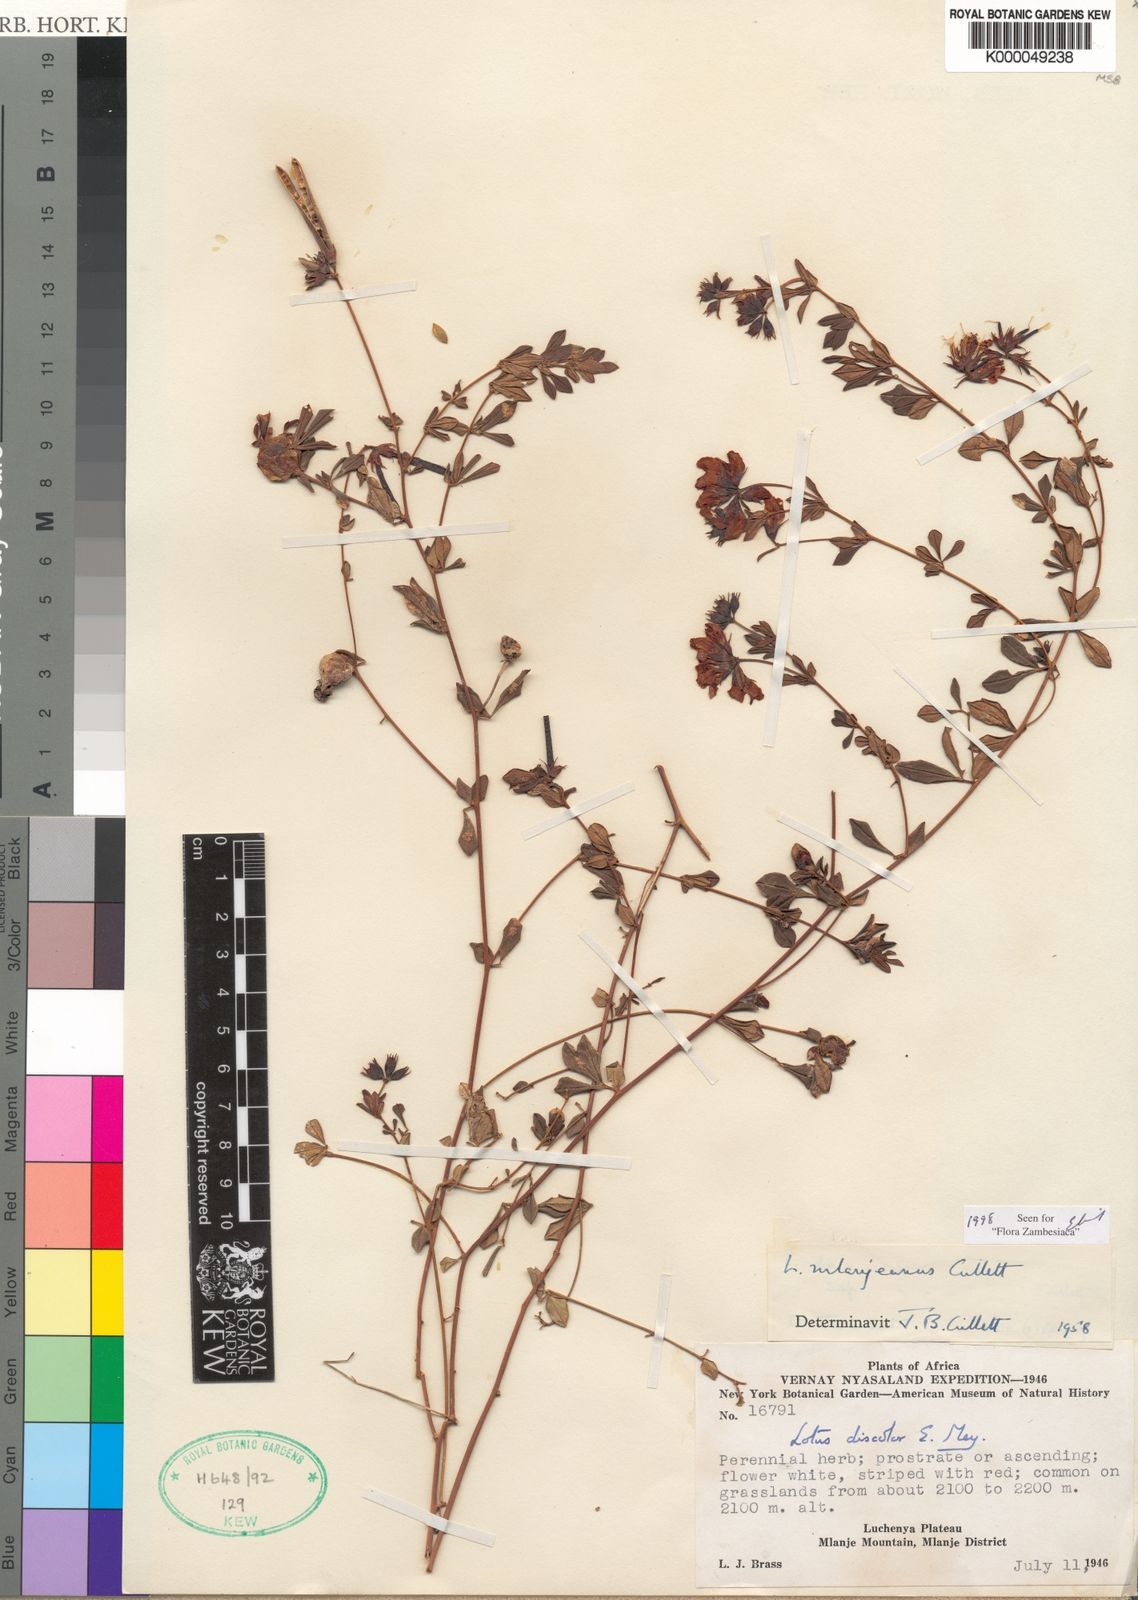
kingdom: Plantae
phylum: Tracheophyta
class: Magnoliopsida
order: Fabales
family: Fabaceae
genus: Lotus
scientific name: Lotus mlanjeanus
